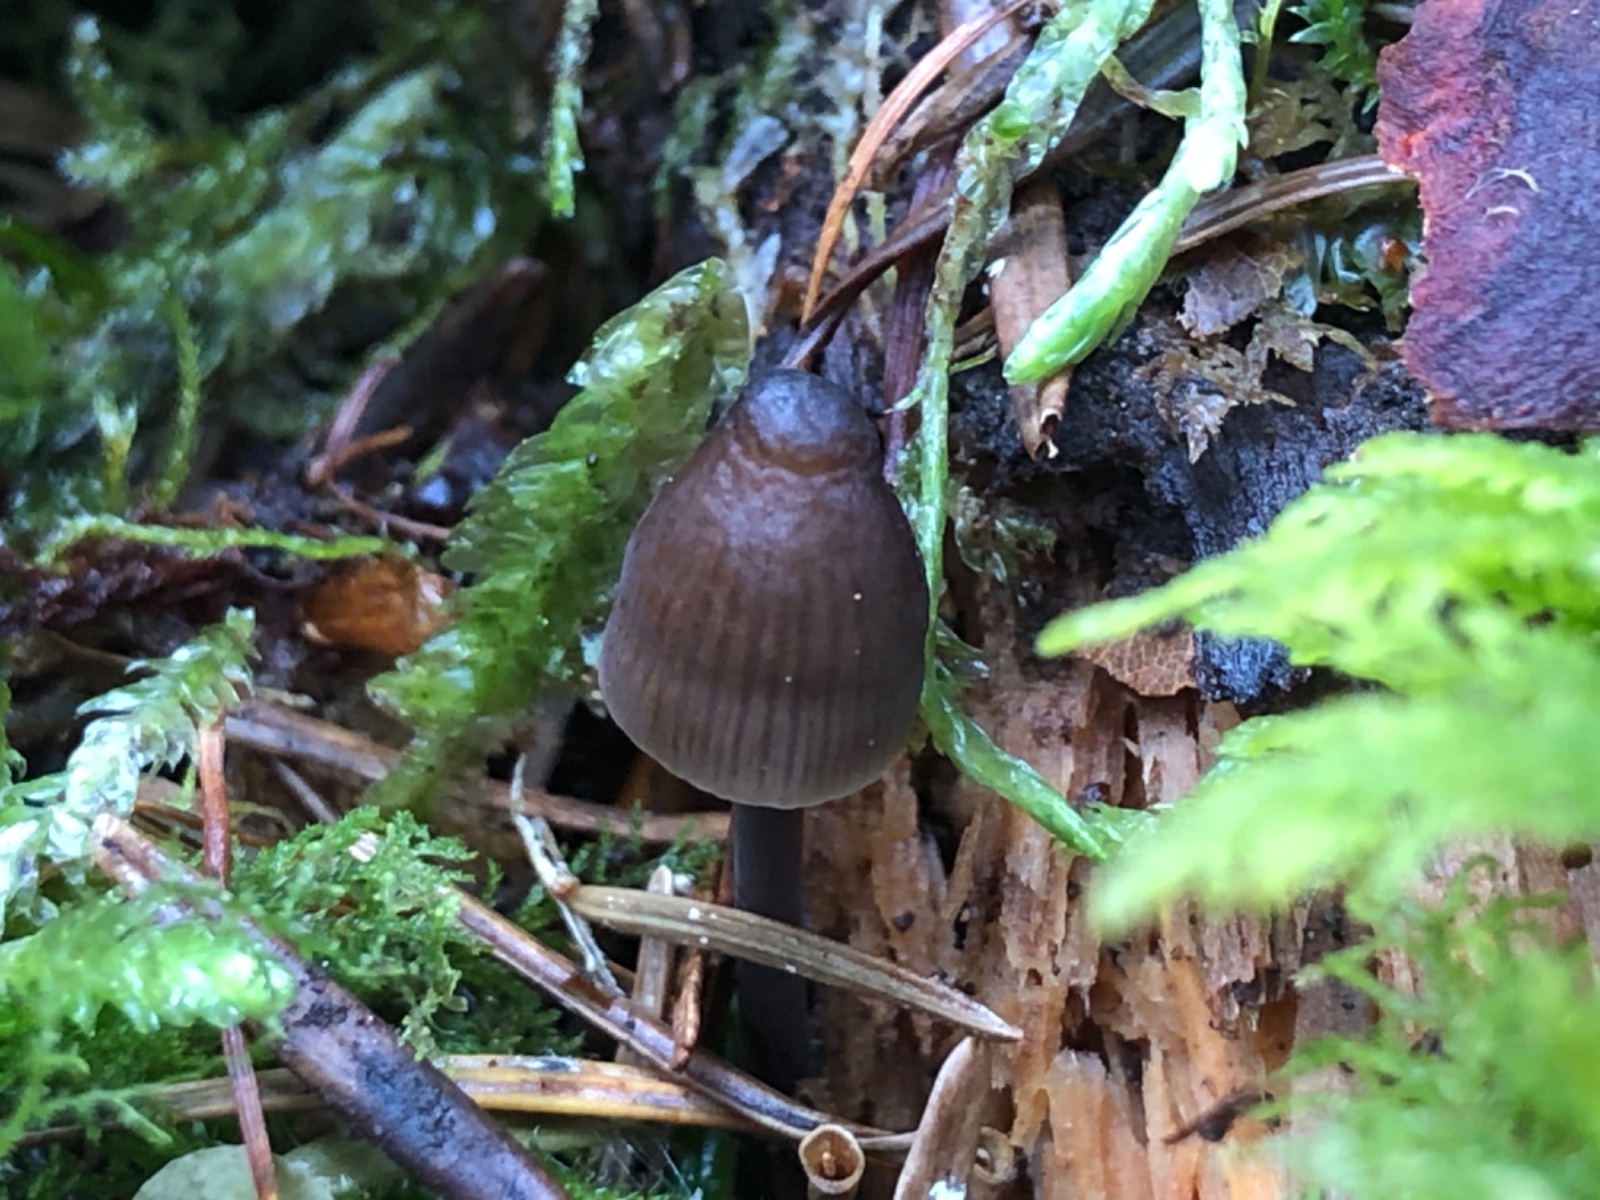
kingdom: Fungi
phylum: Basidiomycota
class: Agaricomycetes
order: Agaricales
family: Mycenaceae
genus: Mycena
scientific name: Mycena silvae-nigrae
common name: tidlig huesvamp
